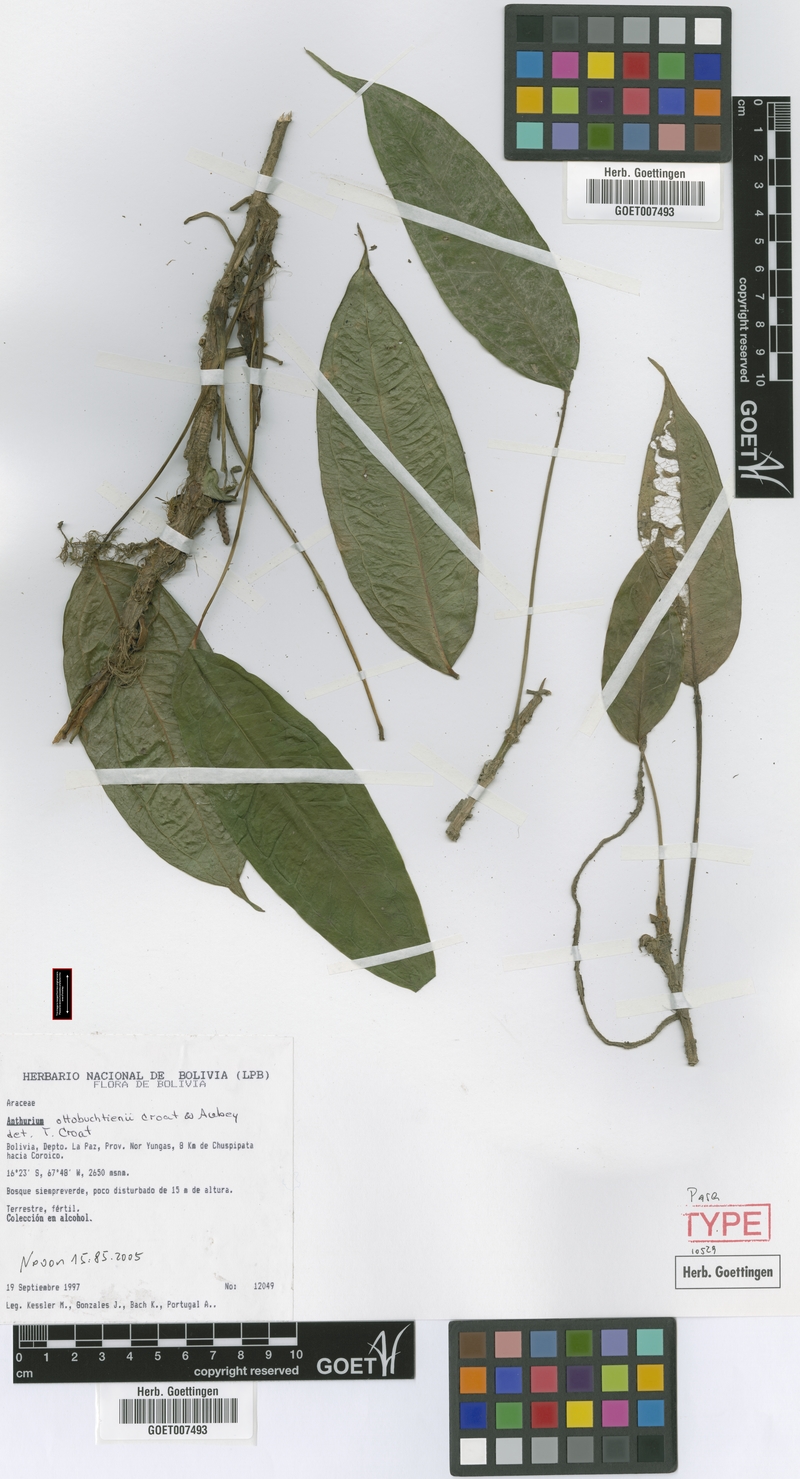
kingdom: Plantae
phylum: Tracheophyta
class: Liliopsida
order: Alismatales
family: Araceae
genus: Anthurium
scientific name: Anthurium ottobuchtienii
